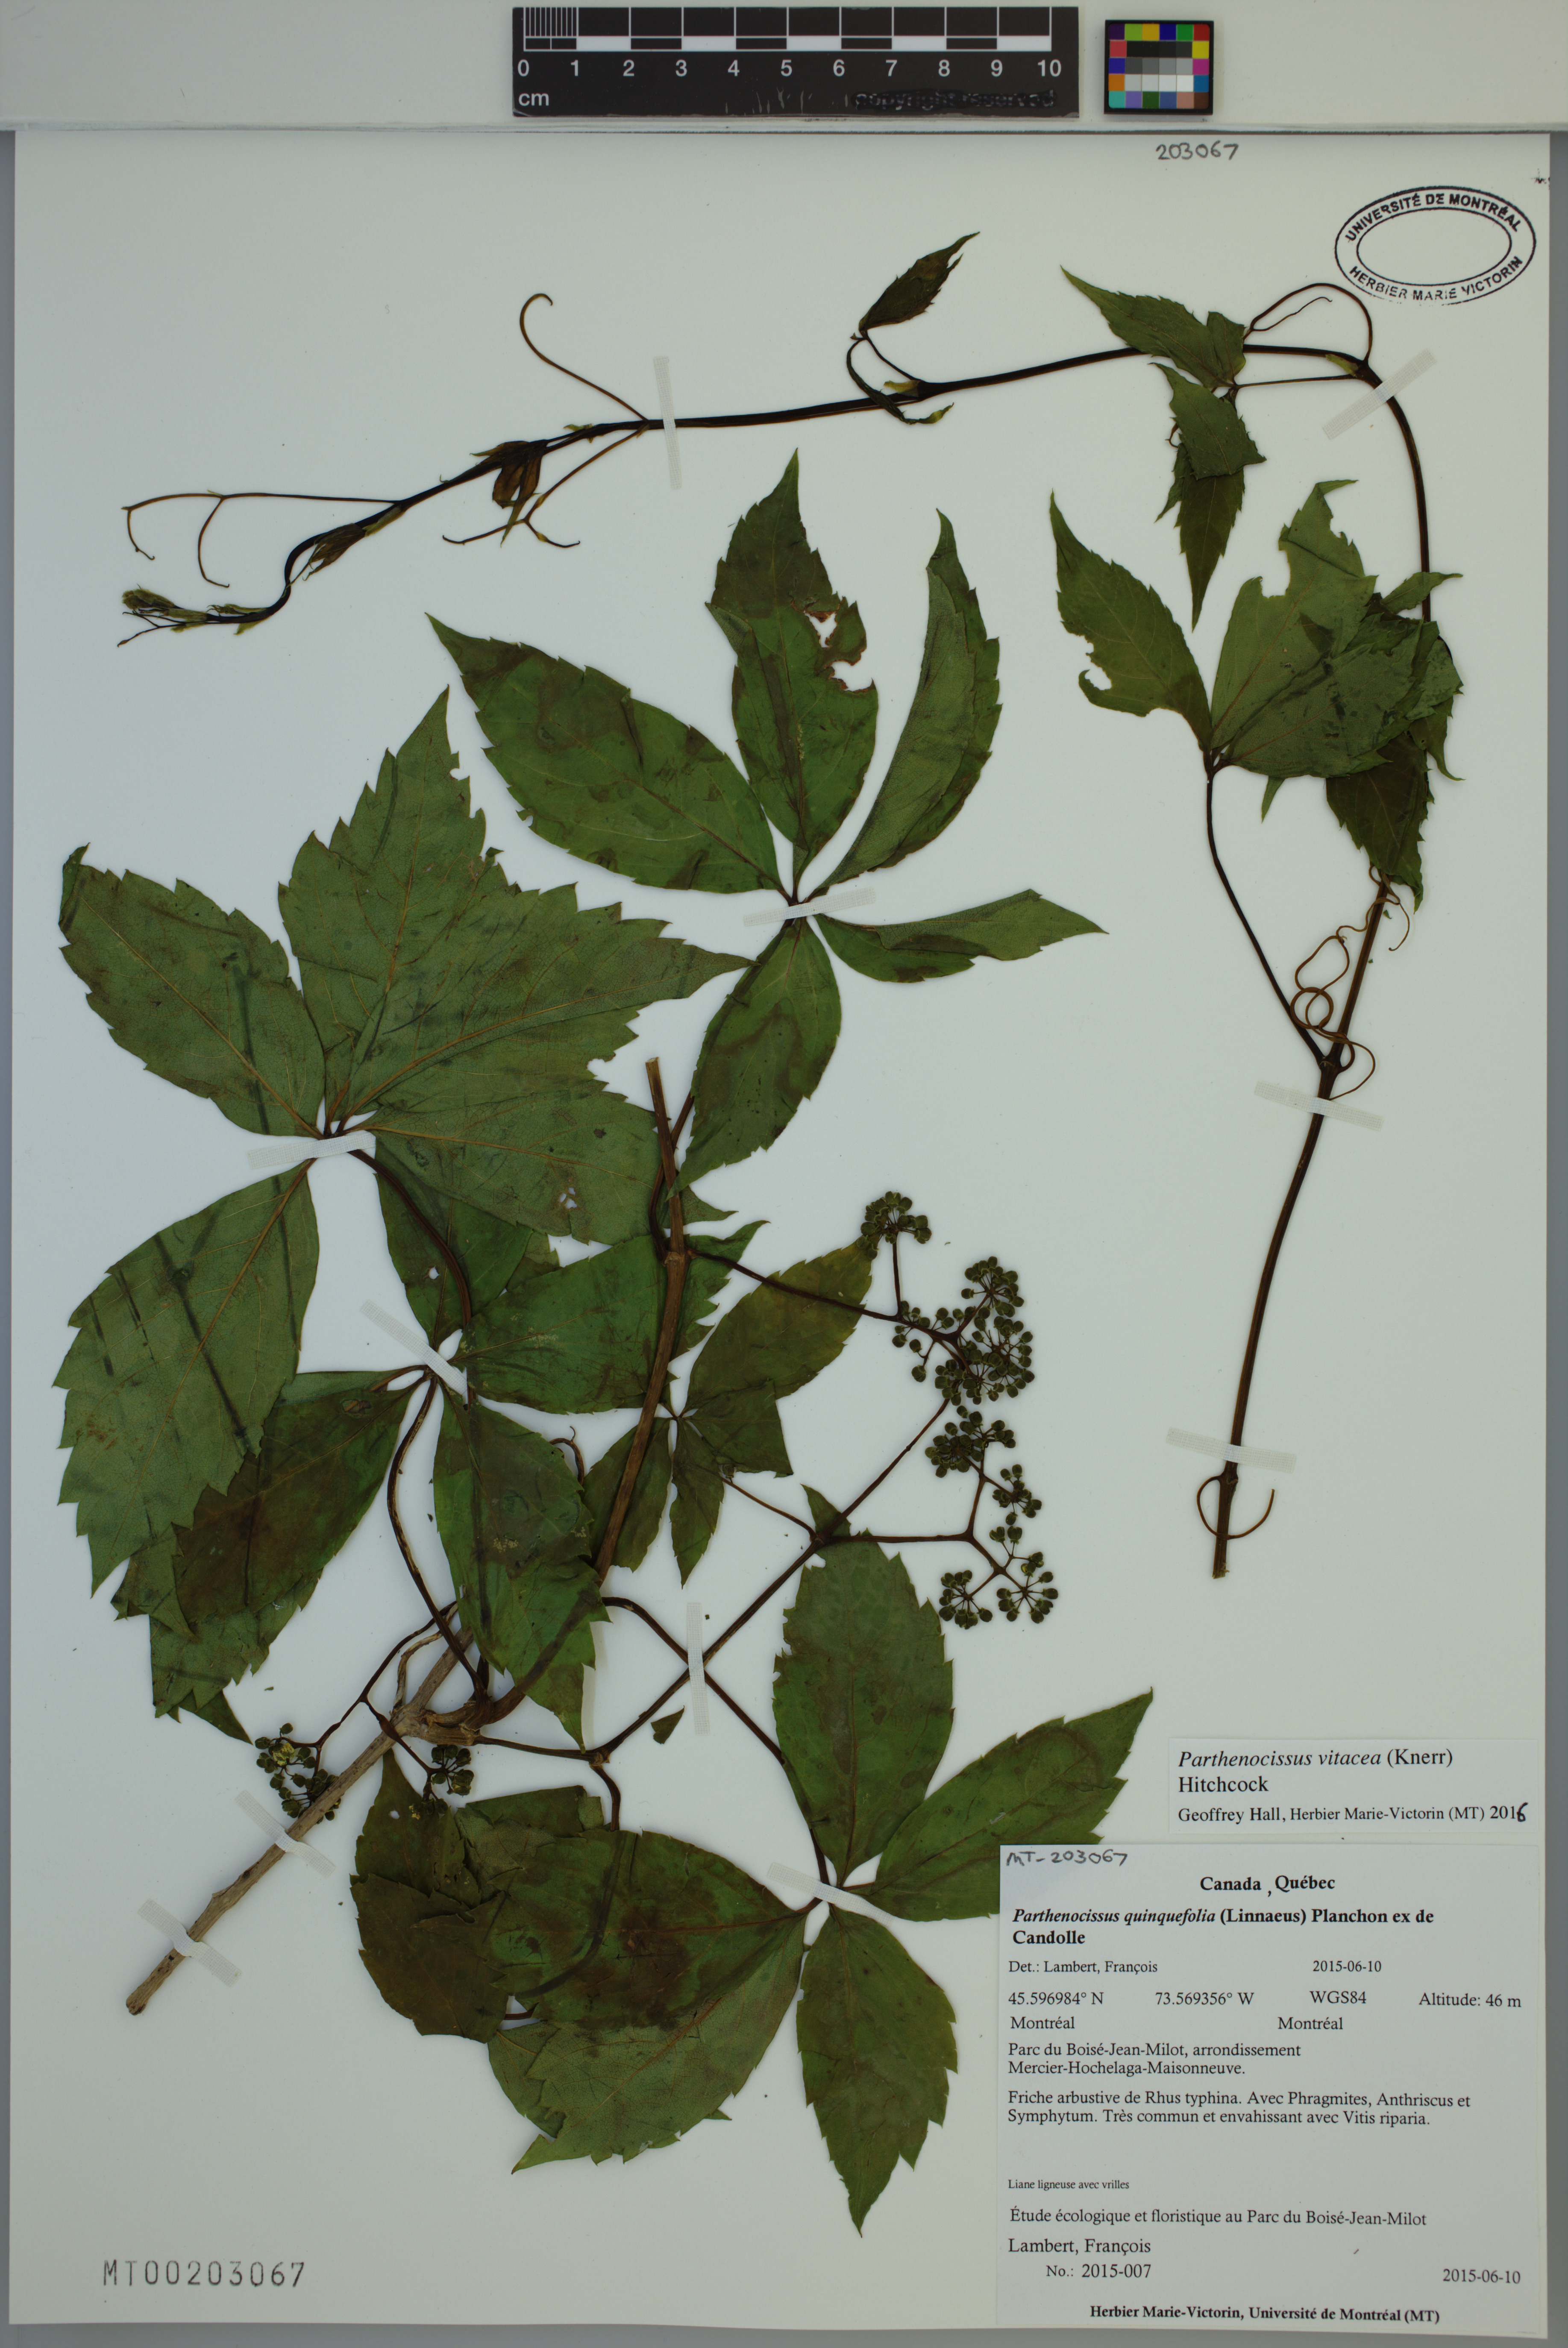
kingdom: Plantae
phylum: Tracheophyta
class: Magnoliopsida
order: Vitales
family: Vitaceae
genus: Parthenocissus
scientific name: Parthenocissus inserta
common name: False virginia-creeper
